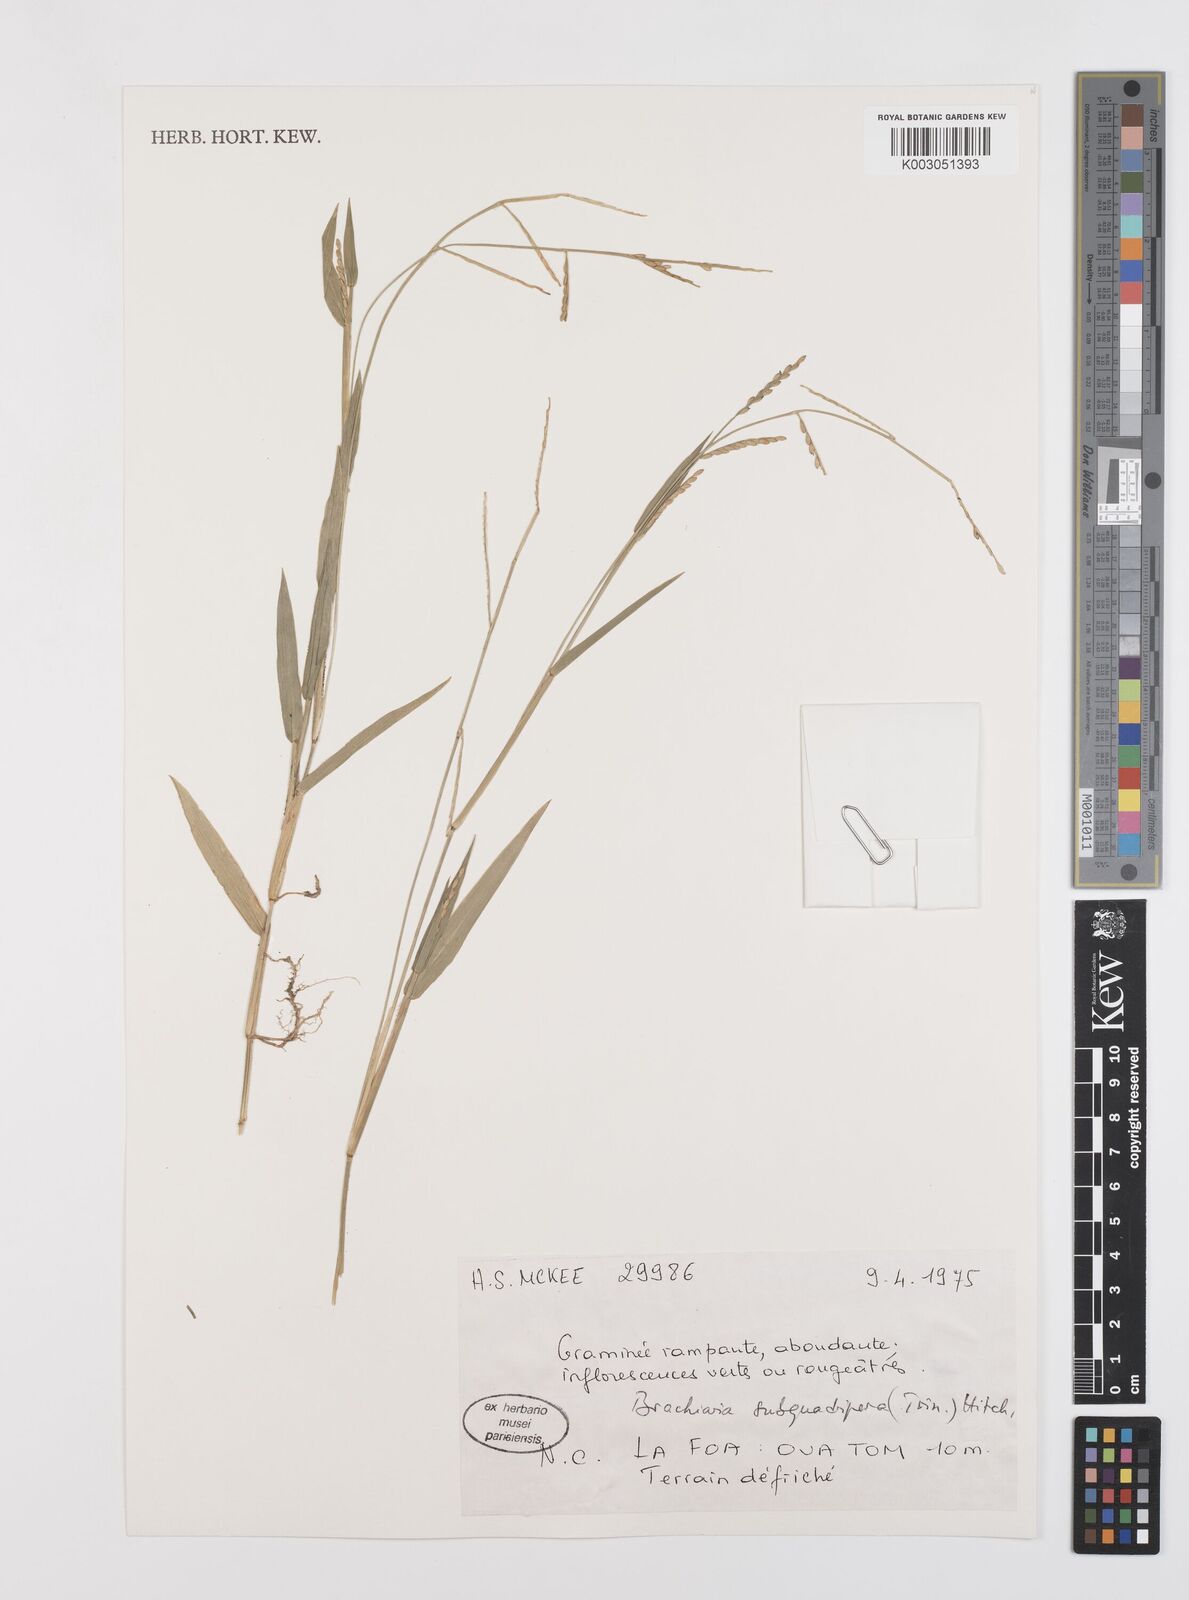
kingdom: Plantae
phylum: Tracheophyta
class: Liliopsida
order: Poales
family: Poaceae
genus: Urochloa
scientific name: Urochloa subquadripara
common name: Armgrass millet
